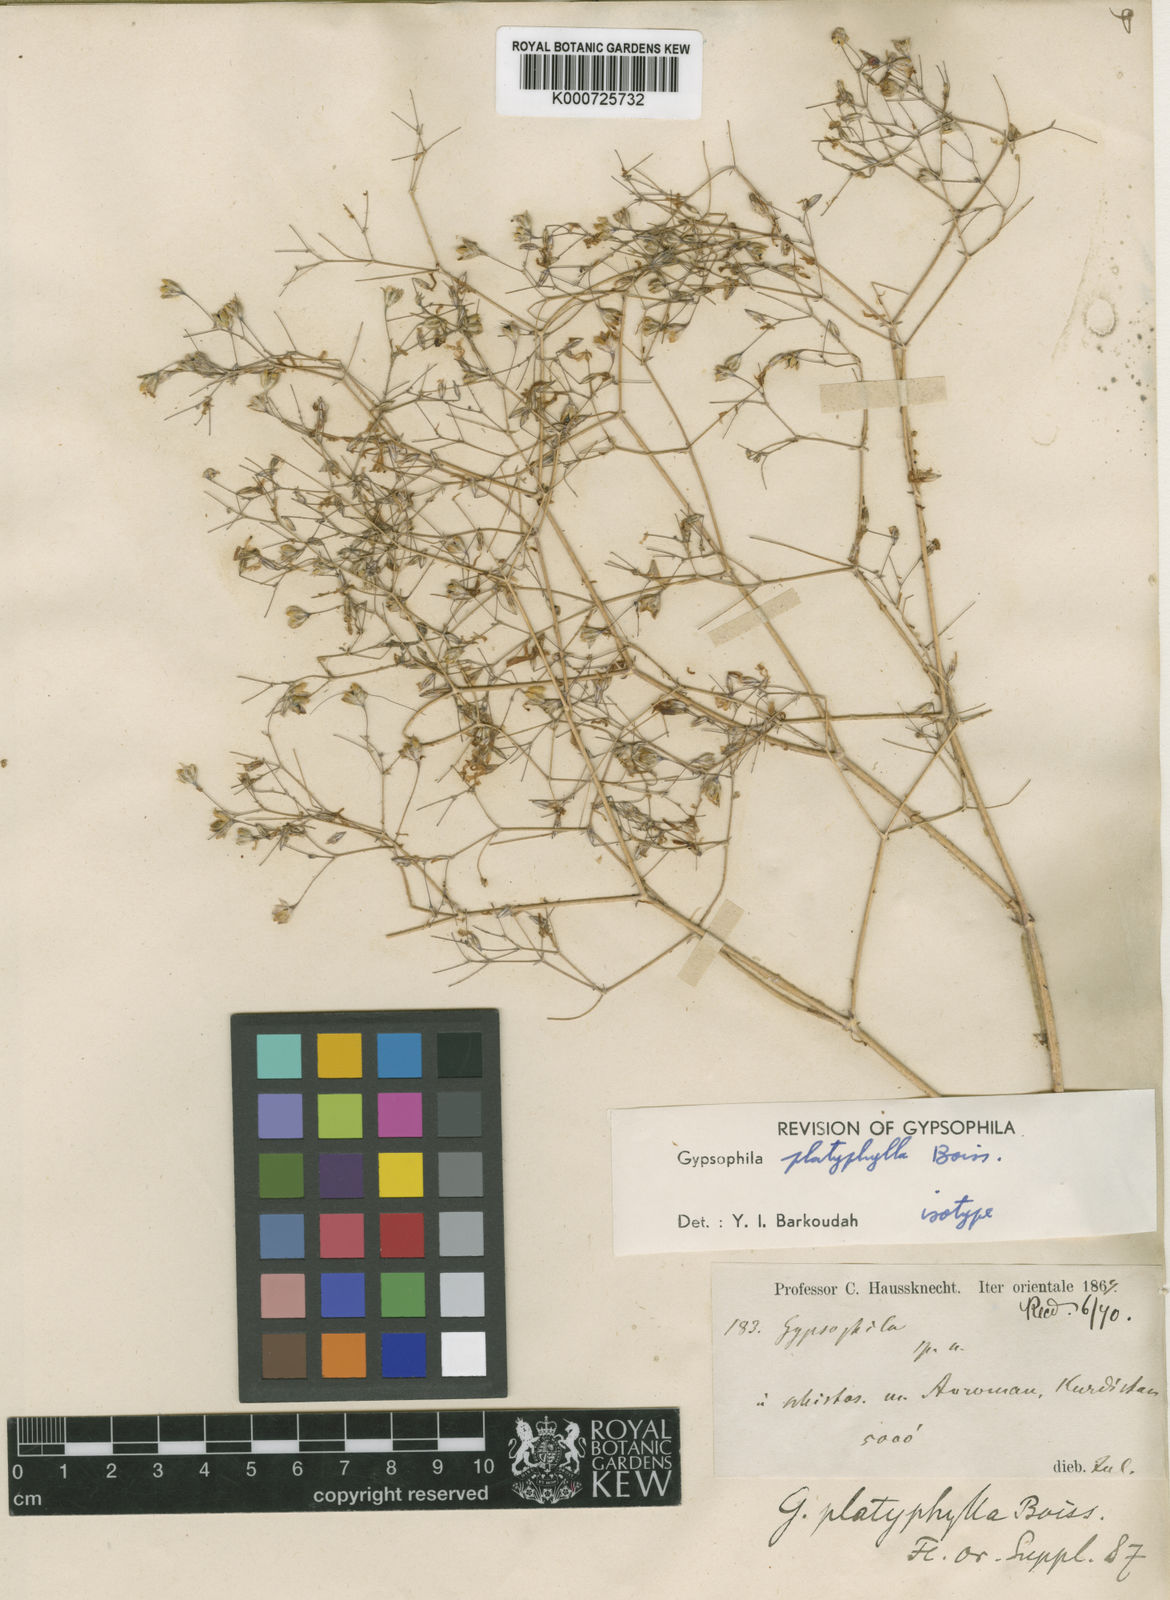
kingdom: Plantae
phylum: Tracheophyta
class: Magnoliopsida
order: Caryophyllales
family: Caryophyllaceae
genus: Gypsophila
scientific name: Gypsophila platyphylla
